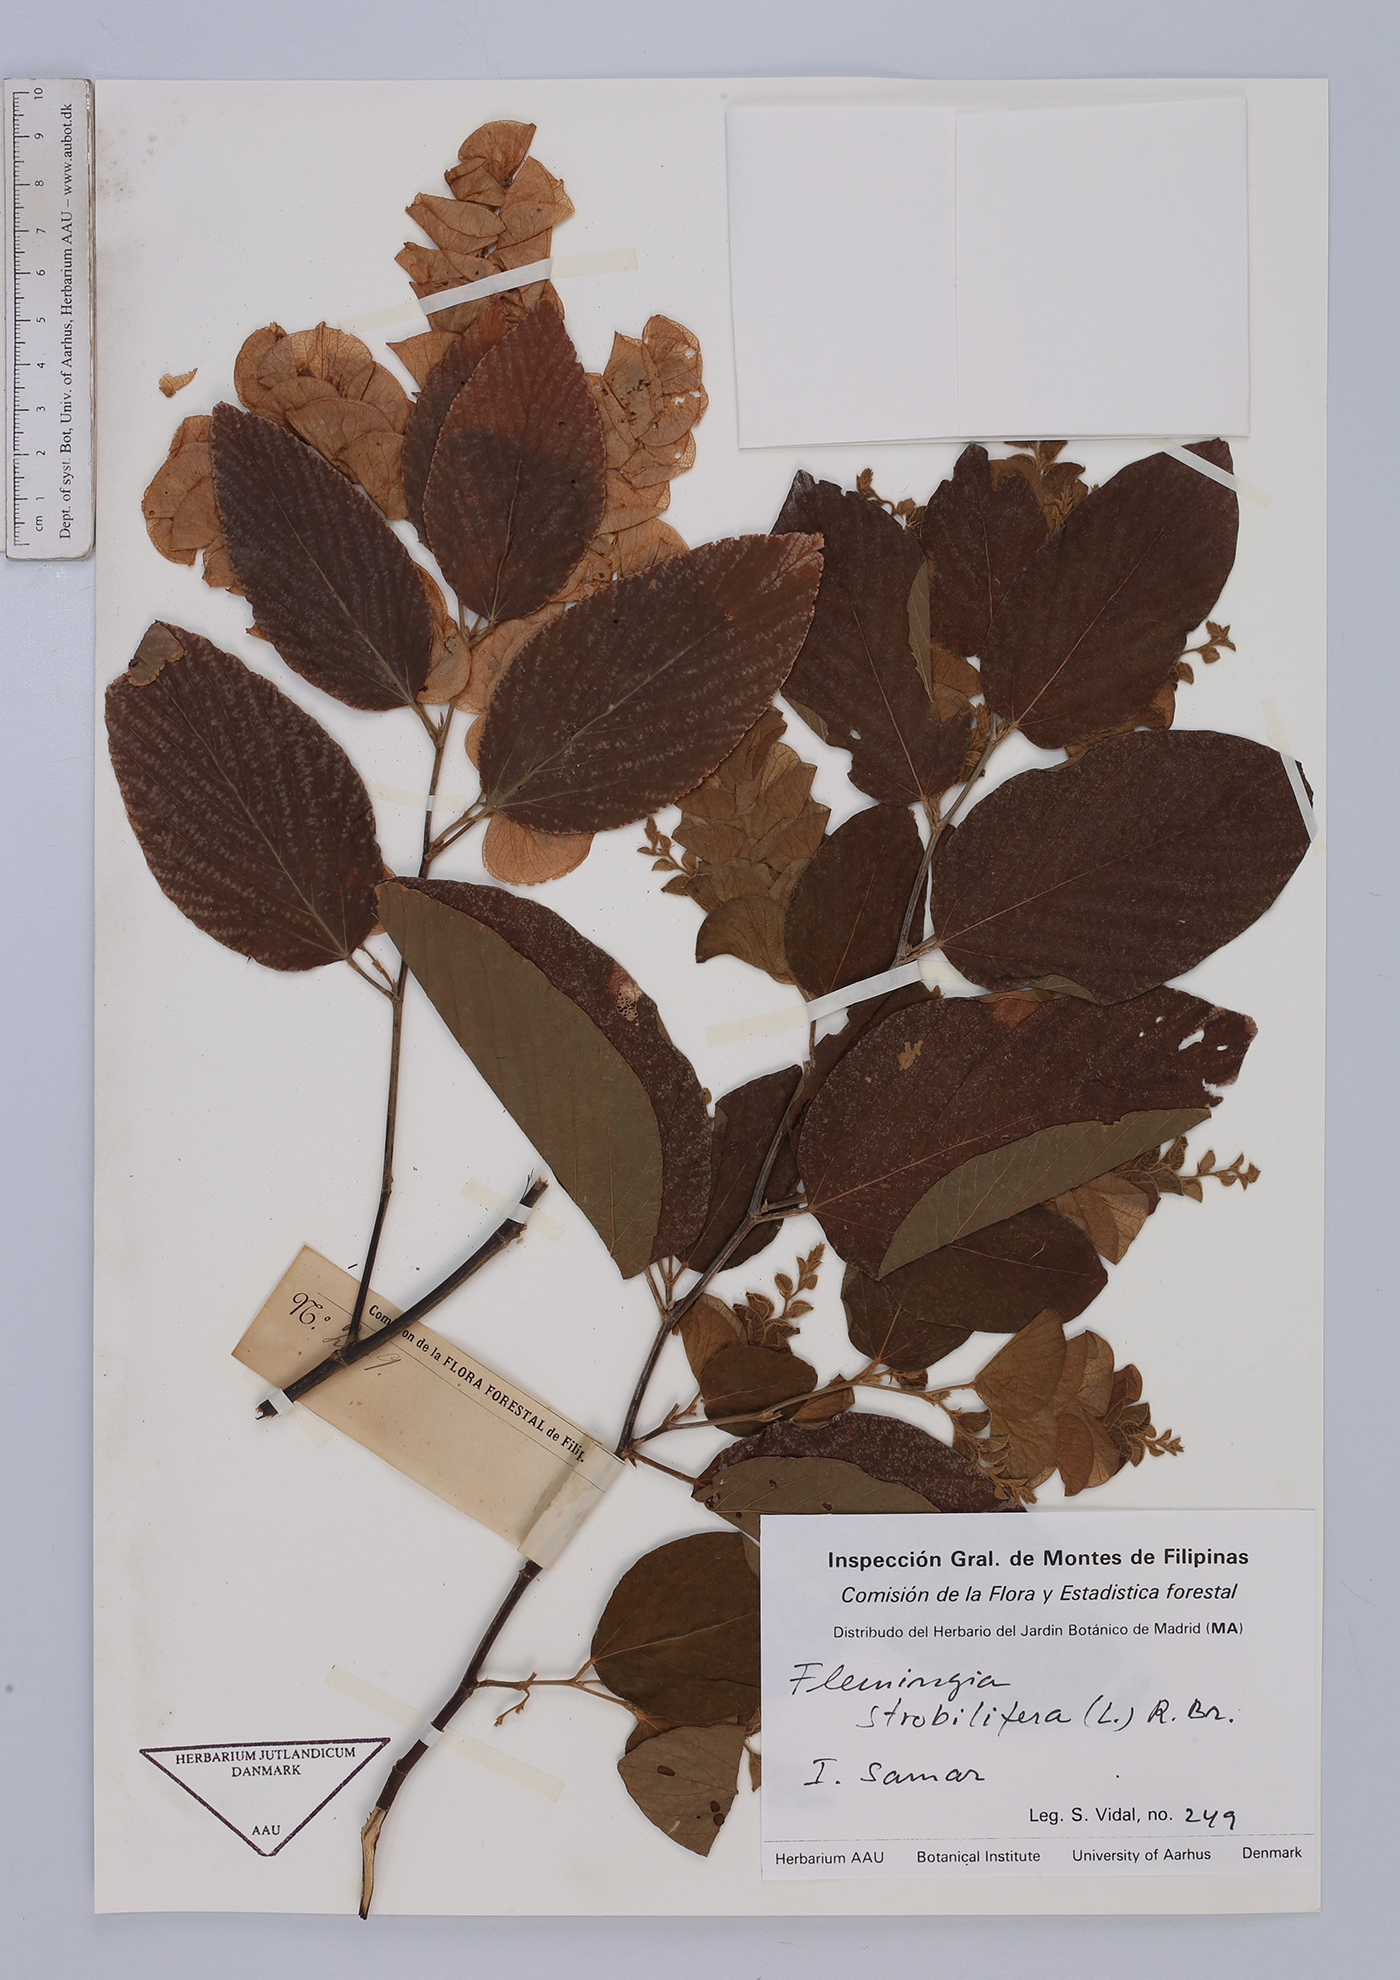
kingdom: Plantae
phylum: Tracheophyta
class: Magnoliopsida
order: Fabales
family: Fabaceae
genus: Flemingia
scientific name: Flemingia strobilifera
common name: Wild hops
